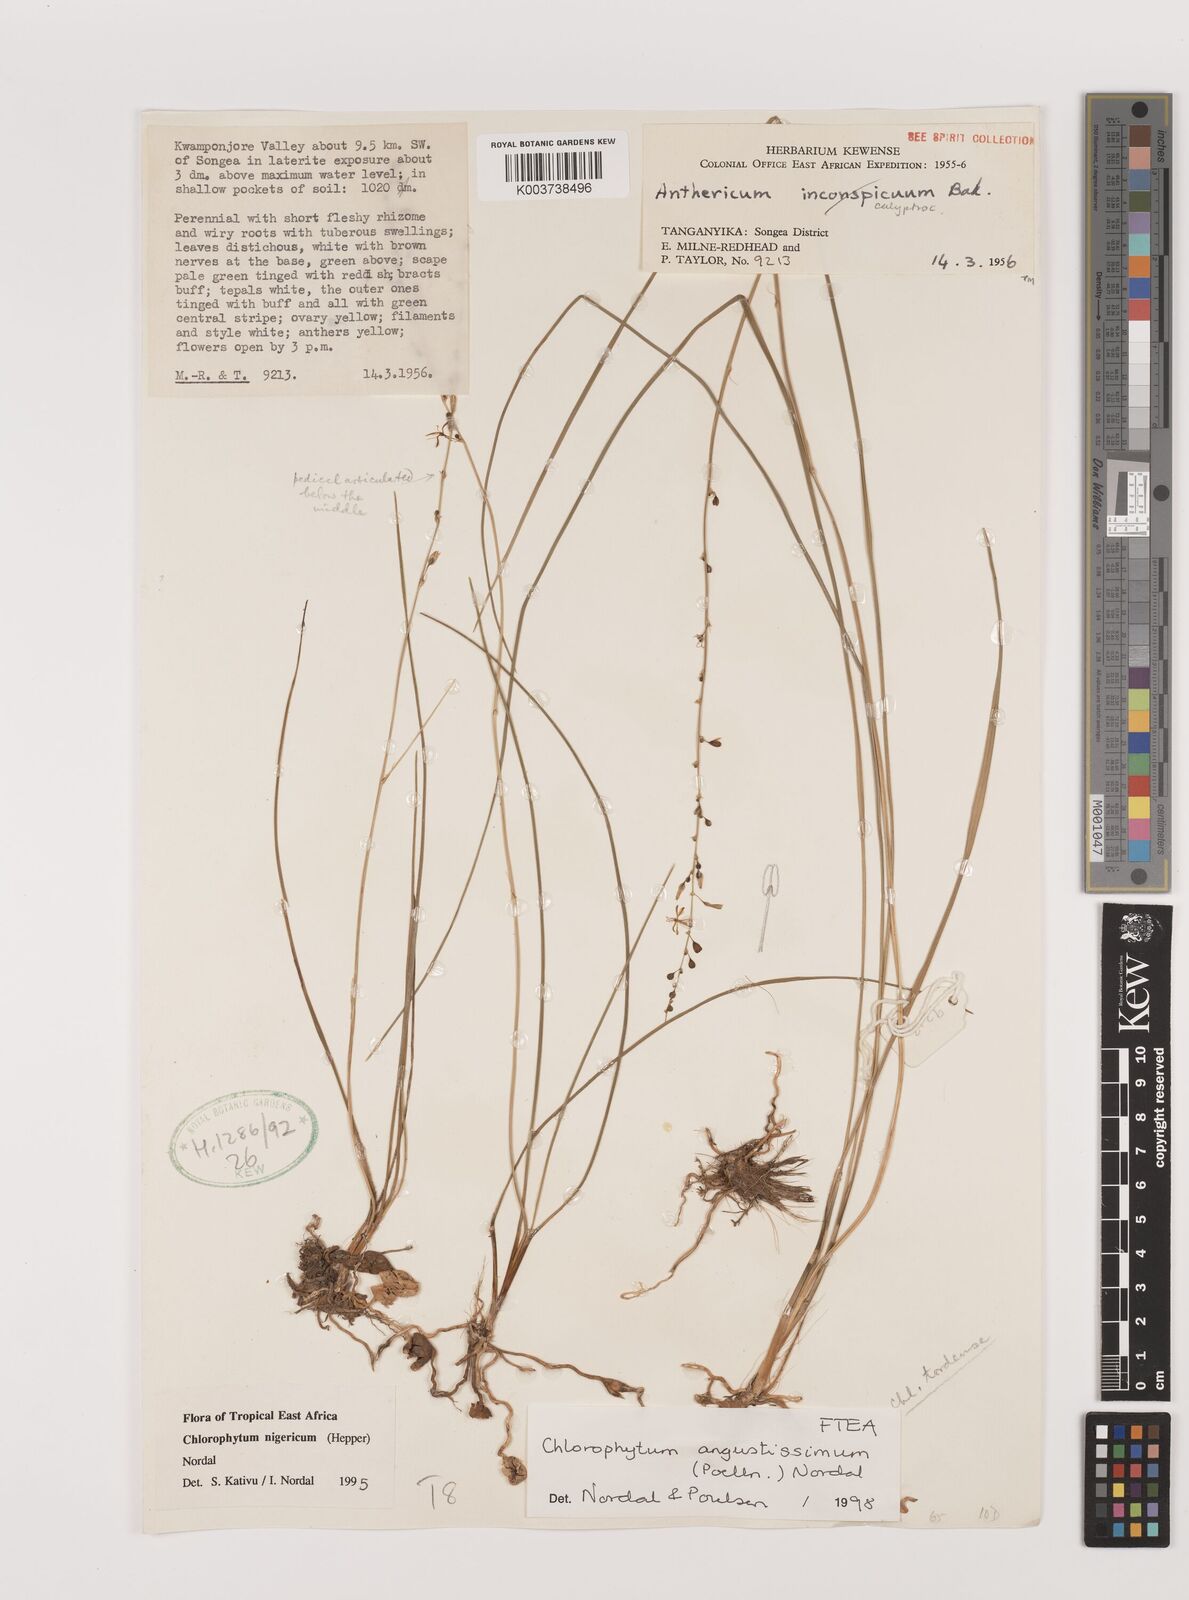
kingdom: Plantae
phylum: Tracheophyta
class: Liliopsida
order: Asparagales
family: Asparagaceae
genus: Chlorophytum
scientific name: Chlorophytum angustissimum
